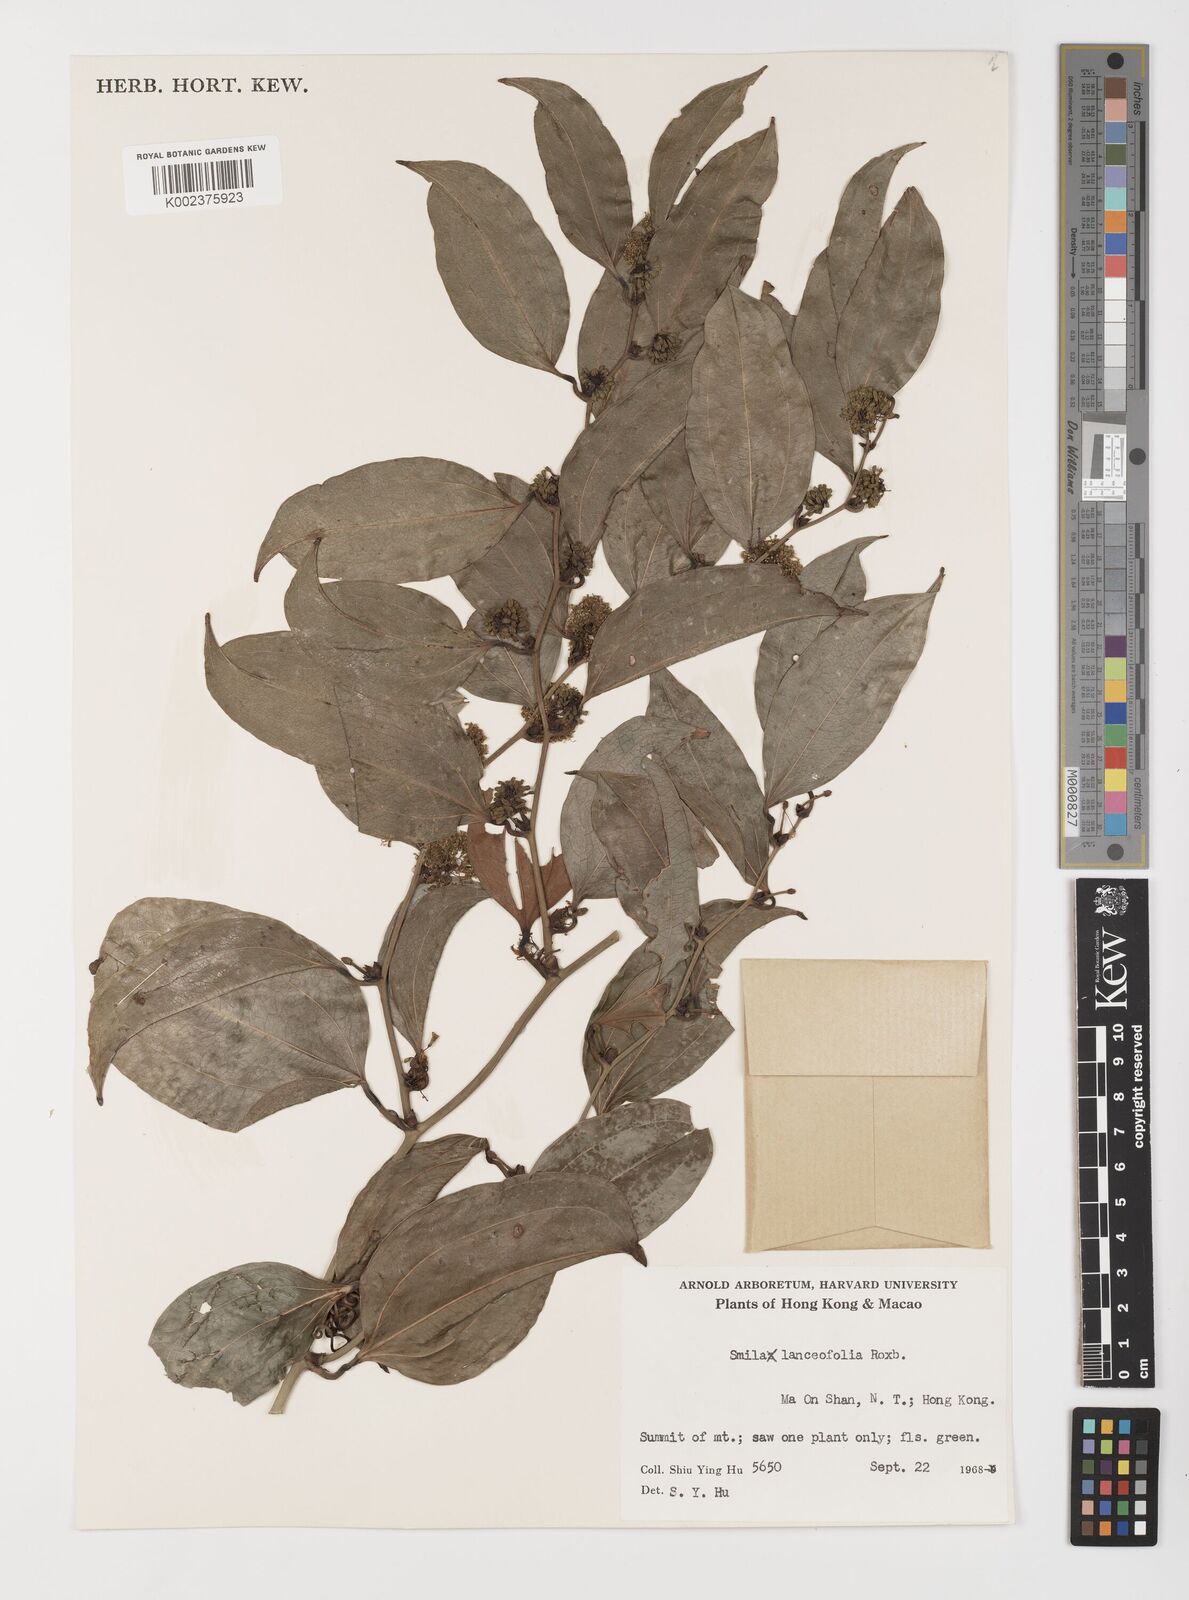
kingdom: Plantae
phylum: Tracheophyta
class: Liliopsida
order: Liliales
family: Smilacaceae
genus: Smilax
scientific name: Smilax lanceifolia
